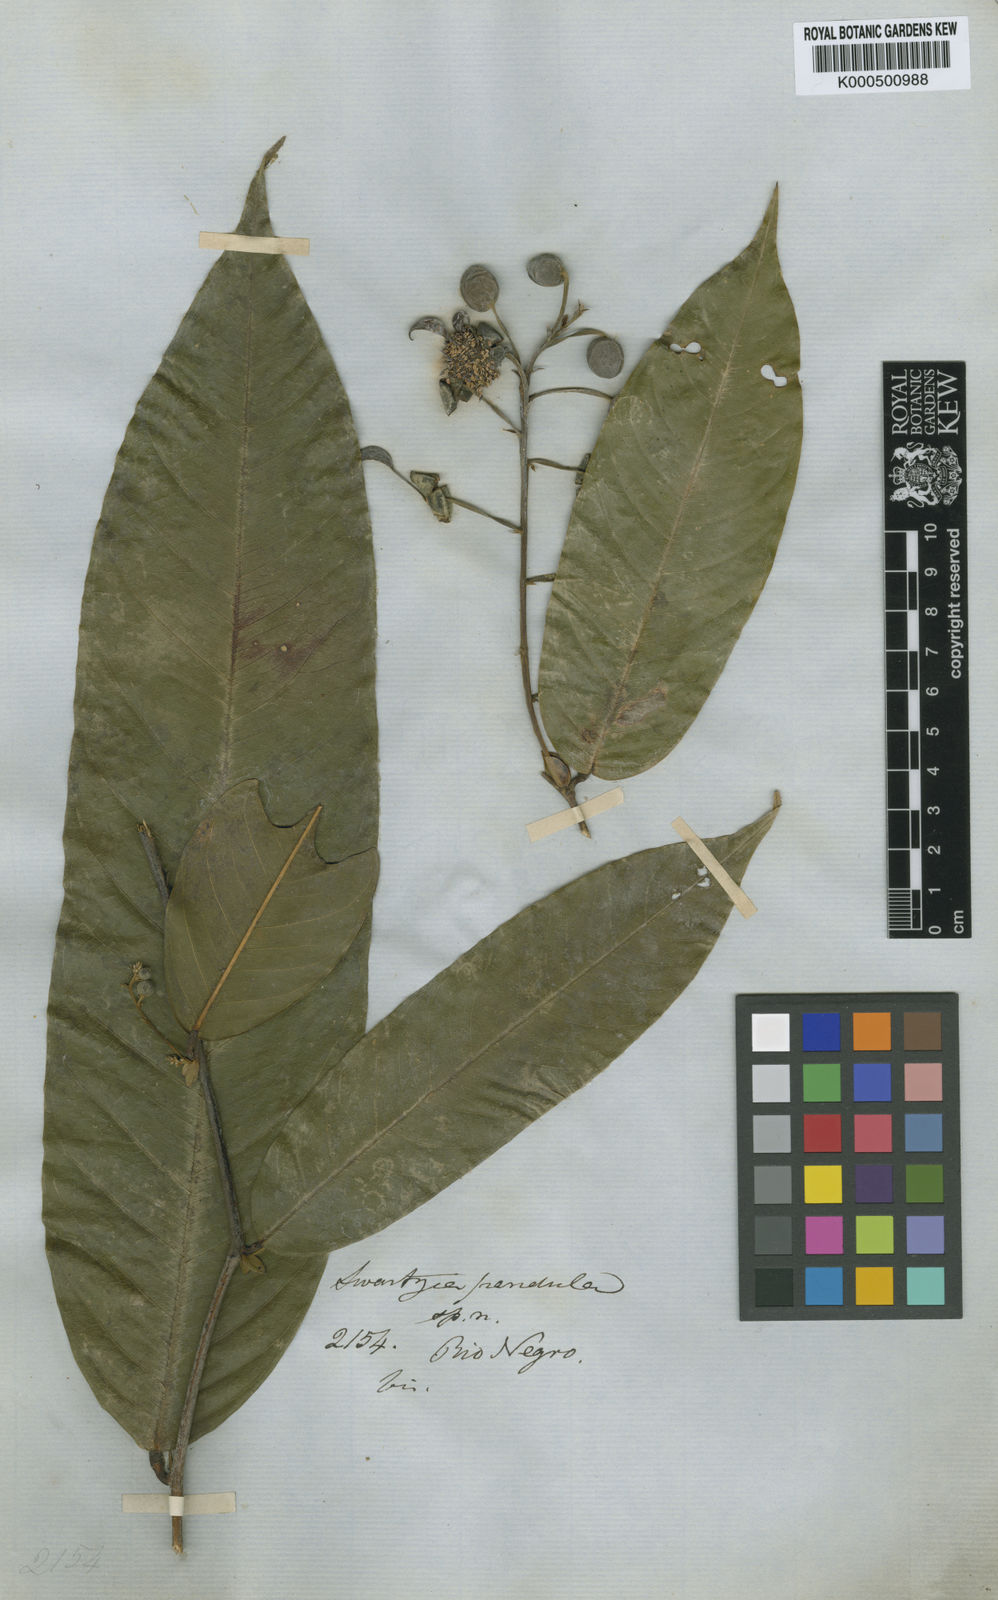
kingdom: Plantae
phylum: Tracheophyta
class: Magnoliopsida
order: Fabales
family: Fabaceae
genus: Swartzia
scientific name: Swartzia pendula
